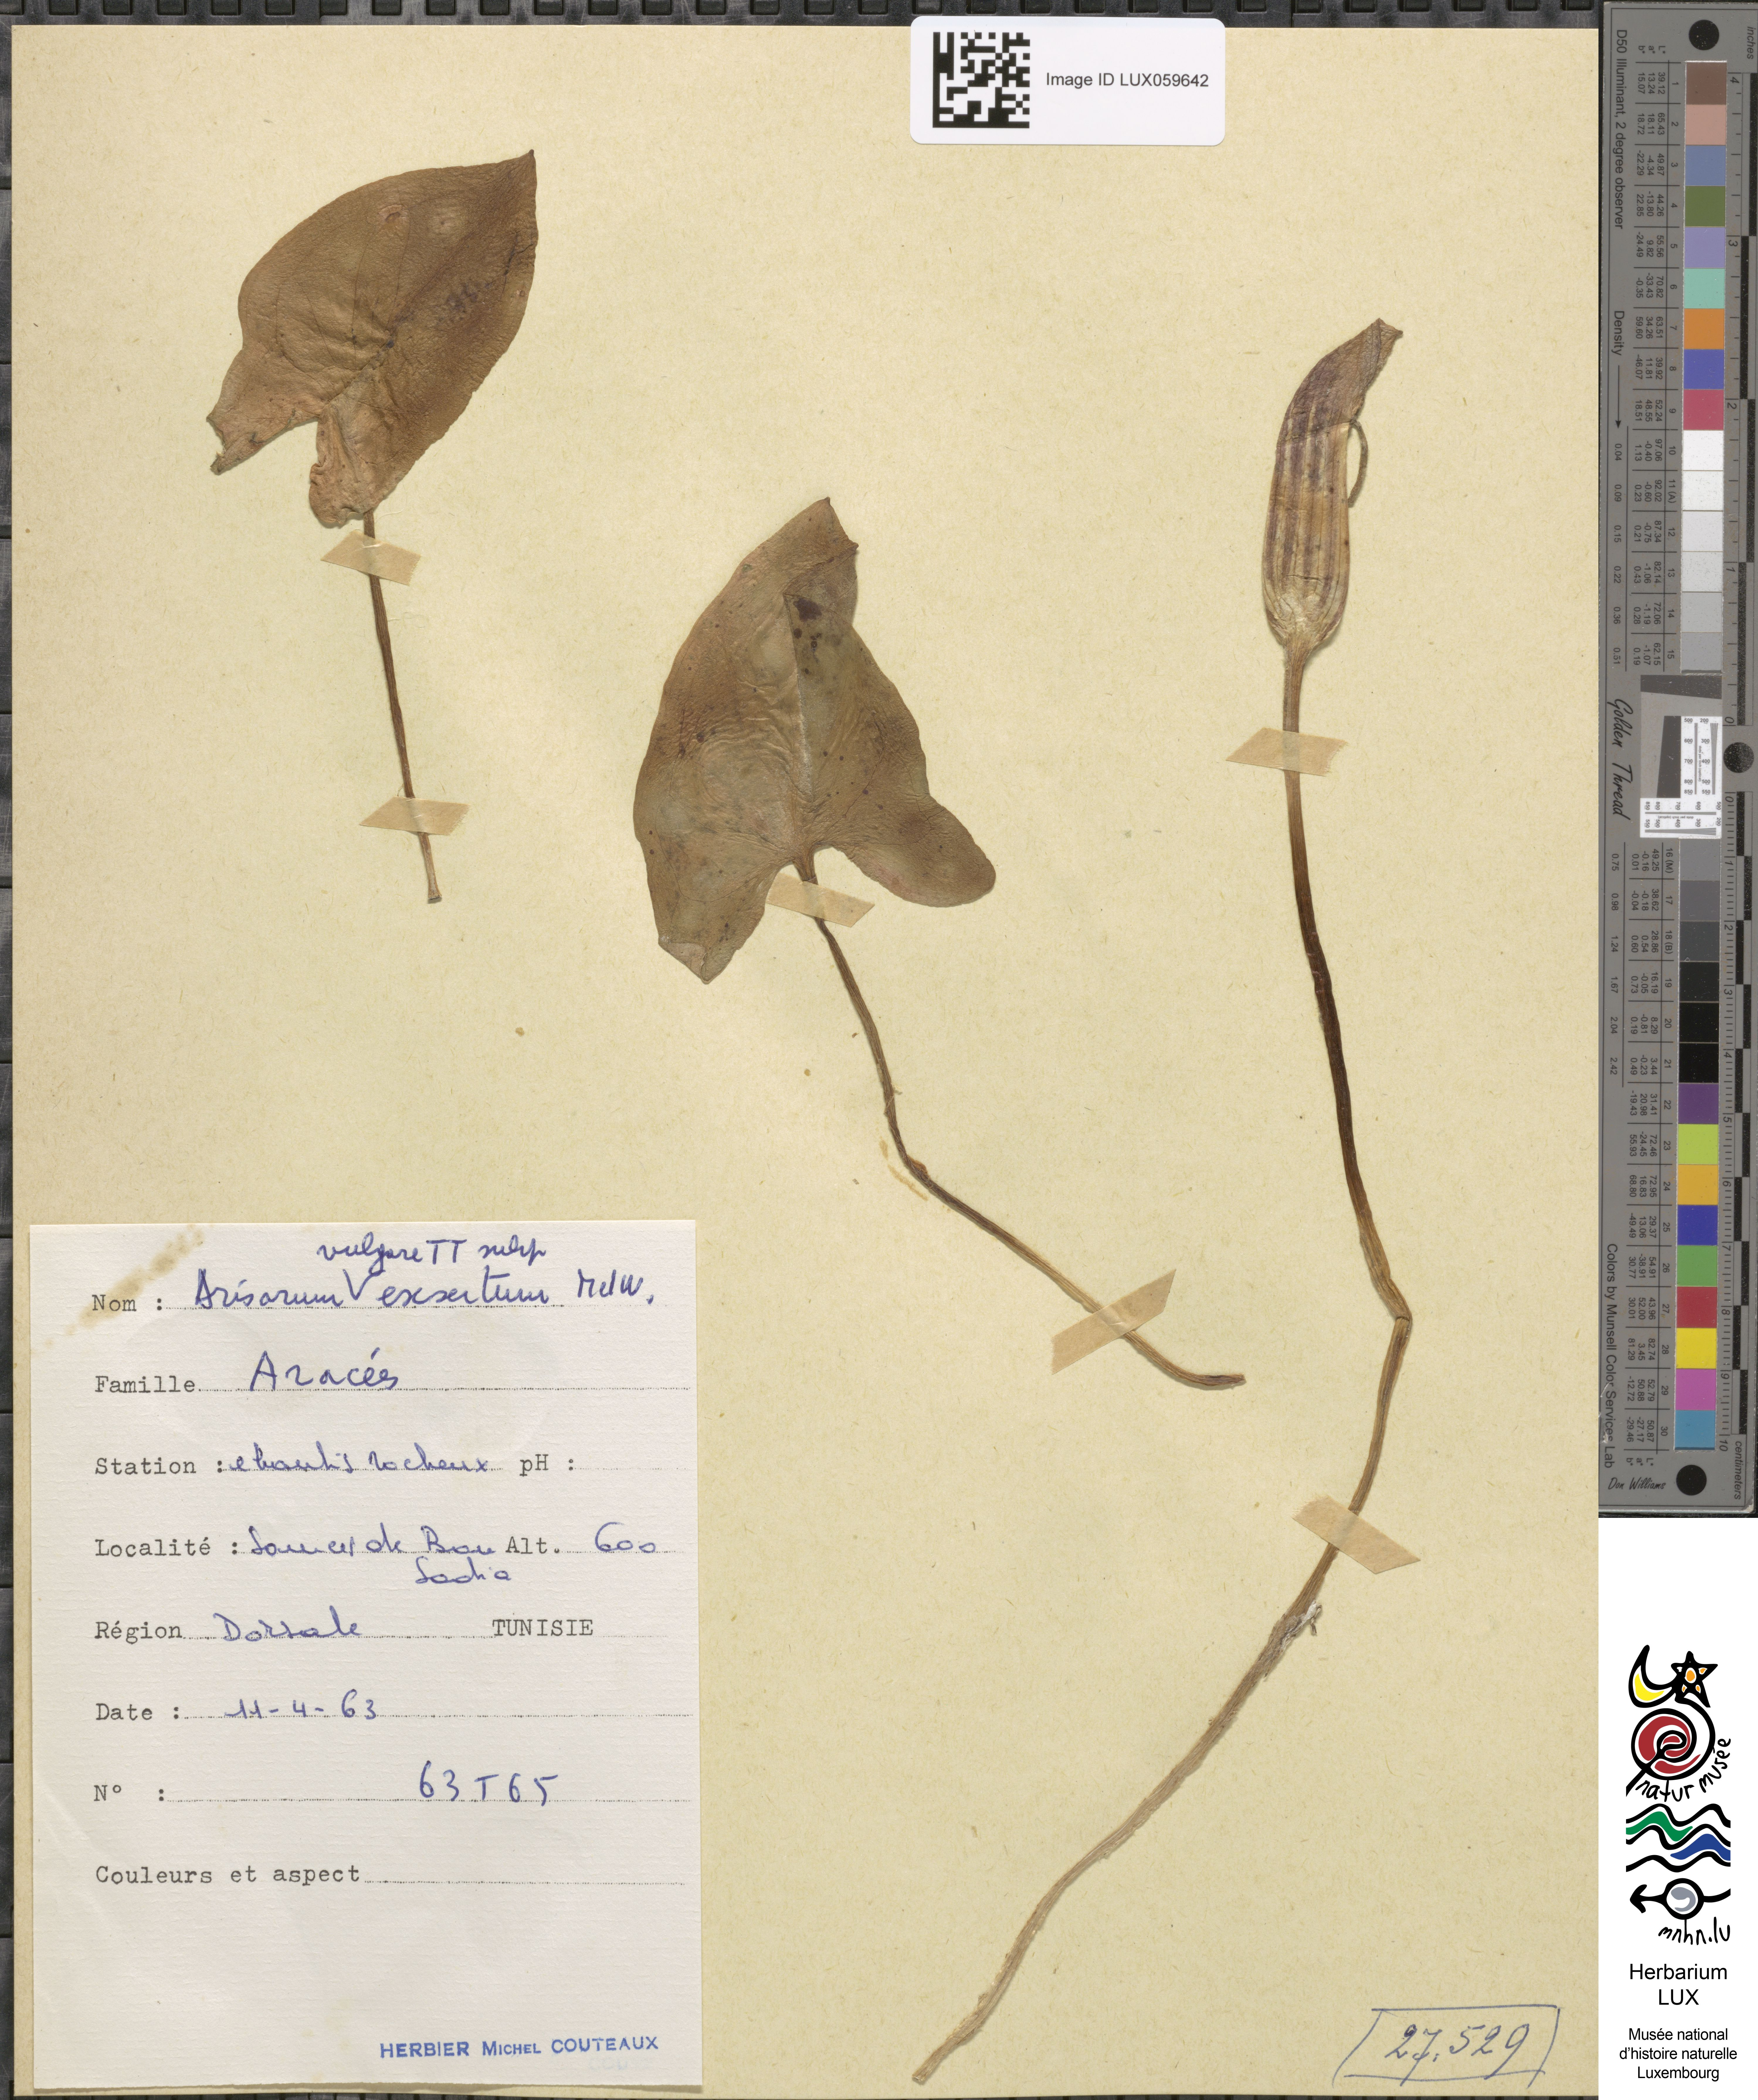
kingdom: Plantae
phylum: Tracheophyta
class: Liliopsida
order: Alismatales
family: Araceae
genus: Arisarum
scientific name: Arisarum vulgare
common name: Common arisarum
